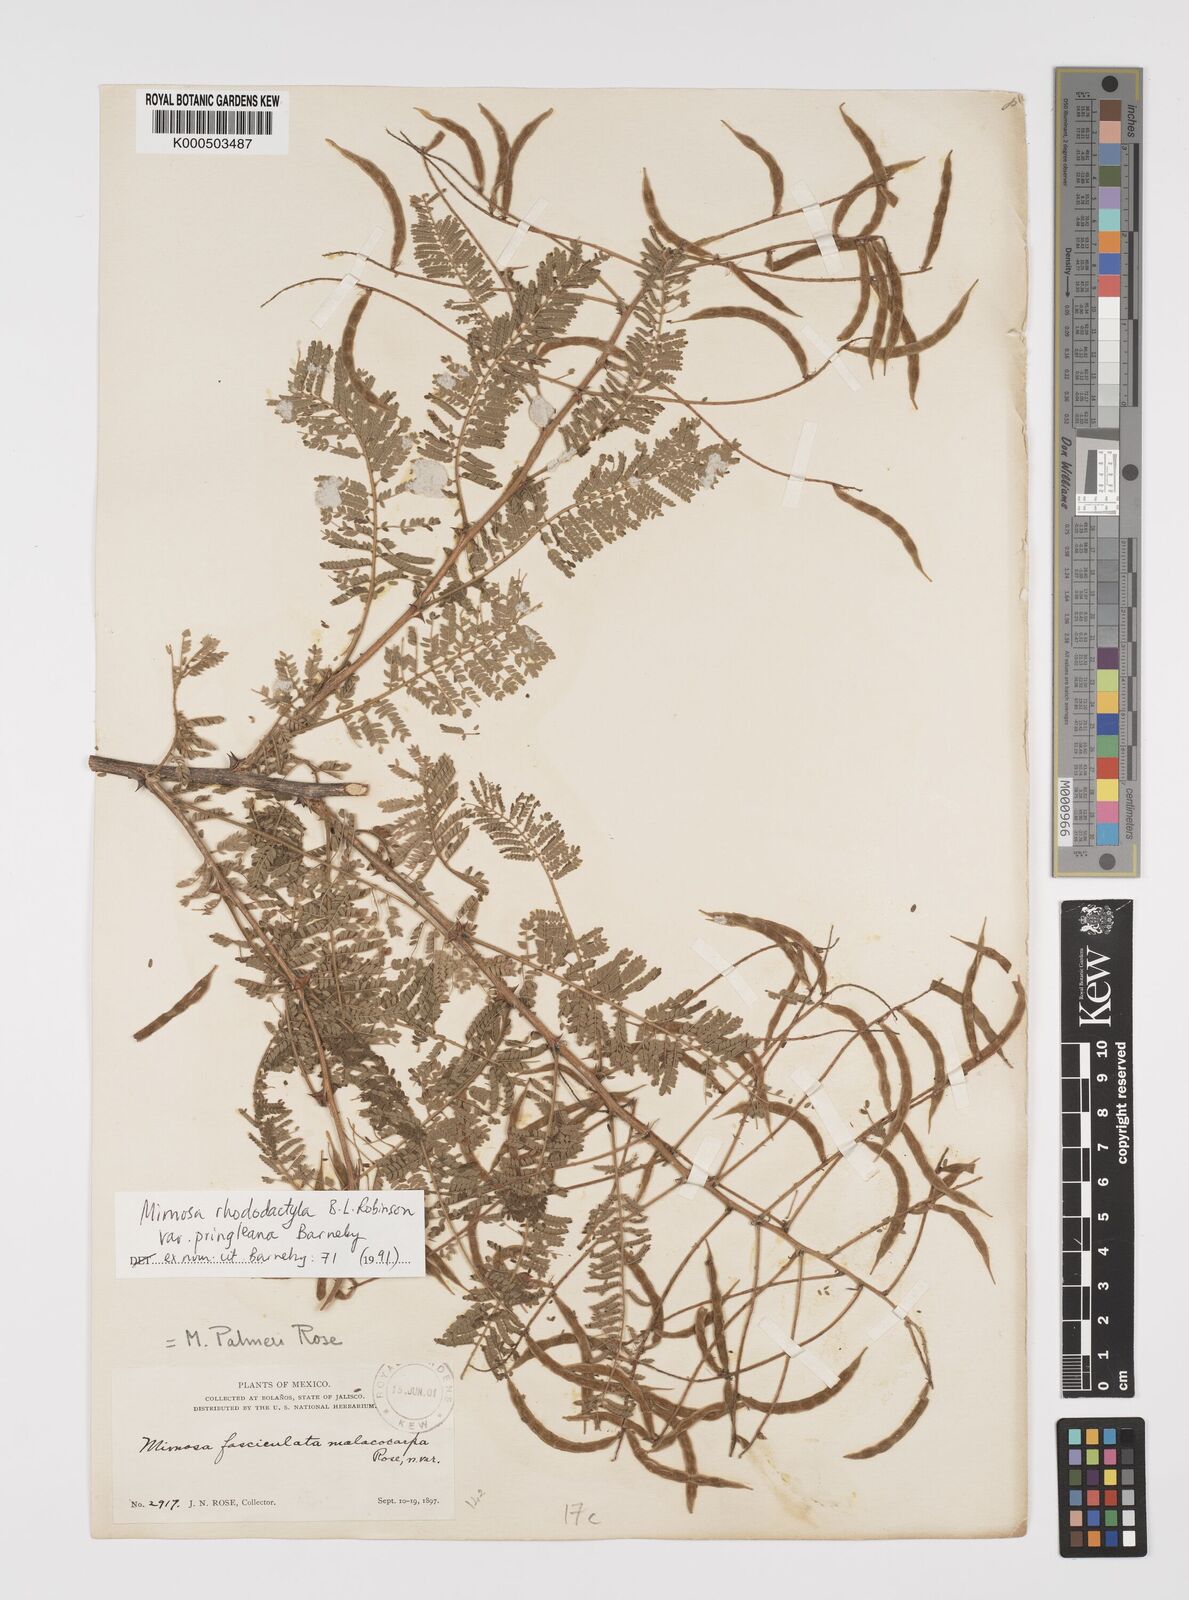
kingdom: Plantae
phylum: Tracheophyta
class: Magnoliopsida
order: Fabales
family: Fabaceae
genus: Mimosa
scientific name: Mimosa rhododactyla
